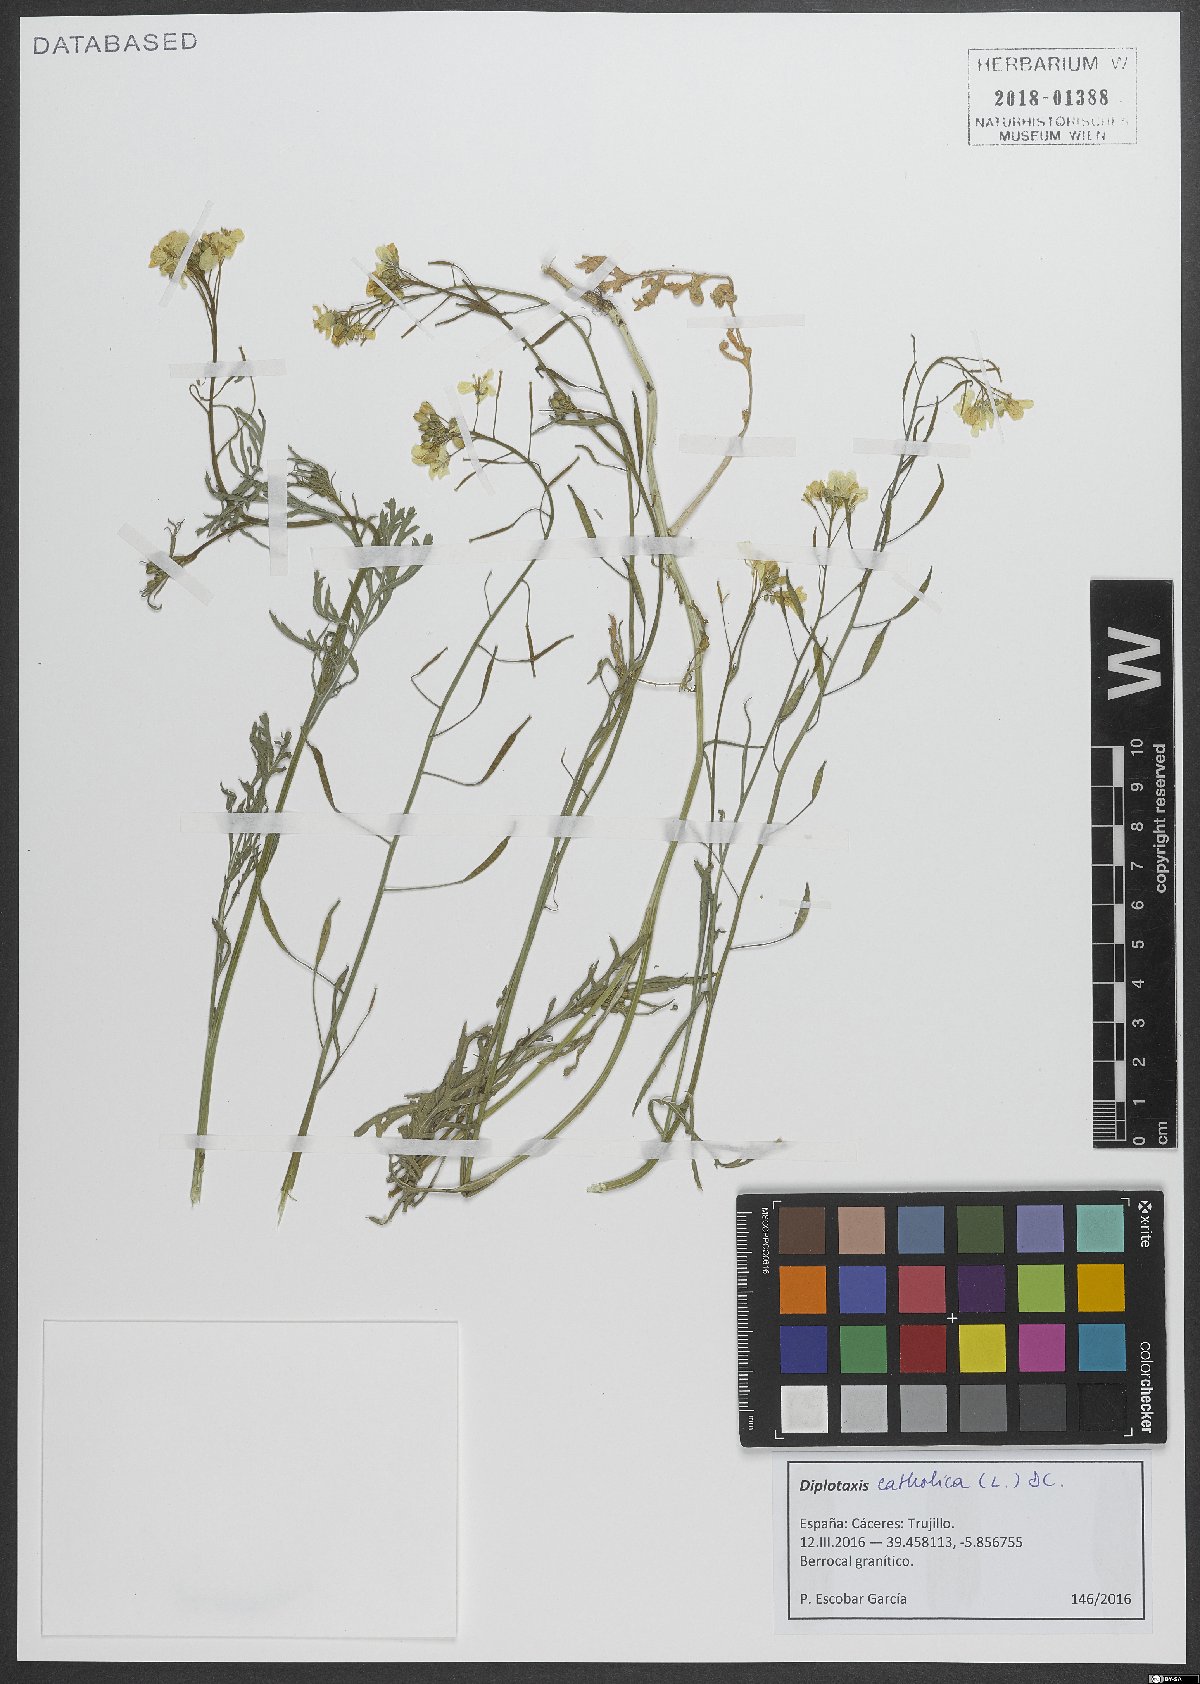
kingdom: Plantae
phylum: Tracheophyta
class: Magnoliopsida
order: Brassicales
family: Brassicaceae
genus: Diplotaxis
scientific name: Diplotaxis catholica
